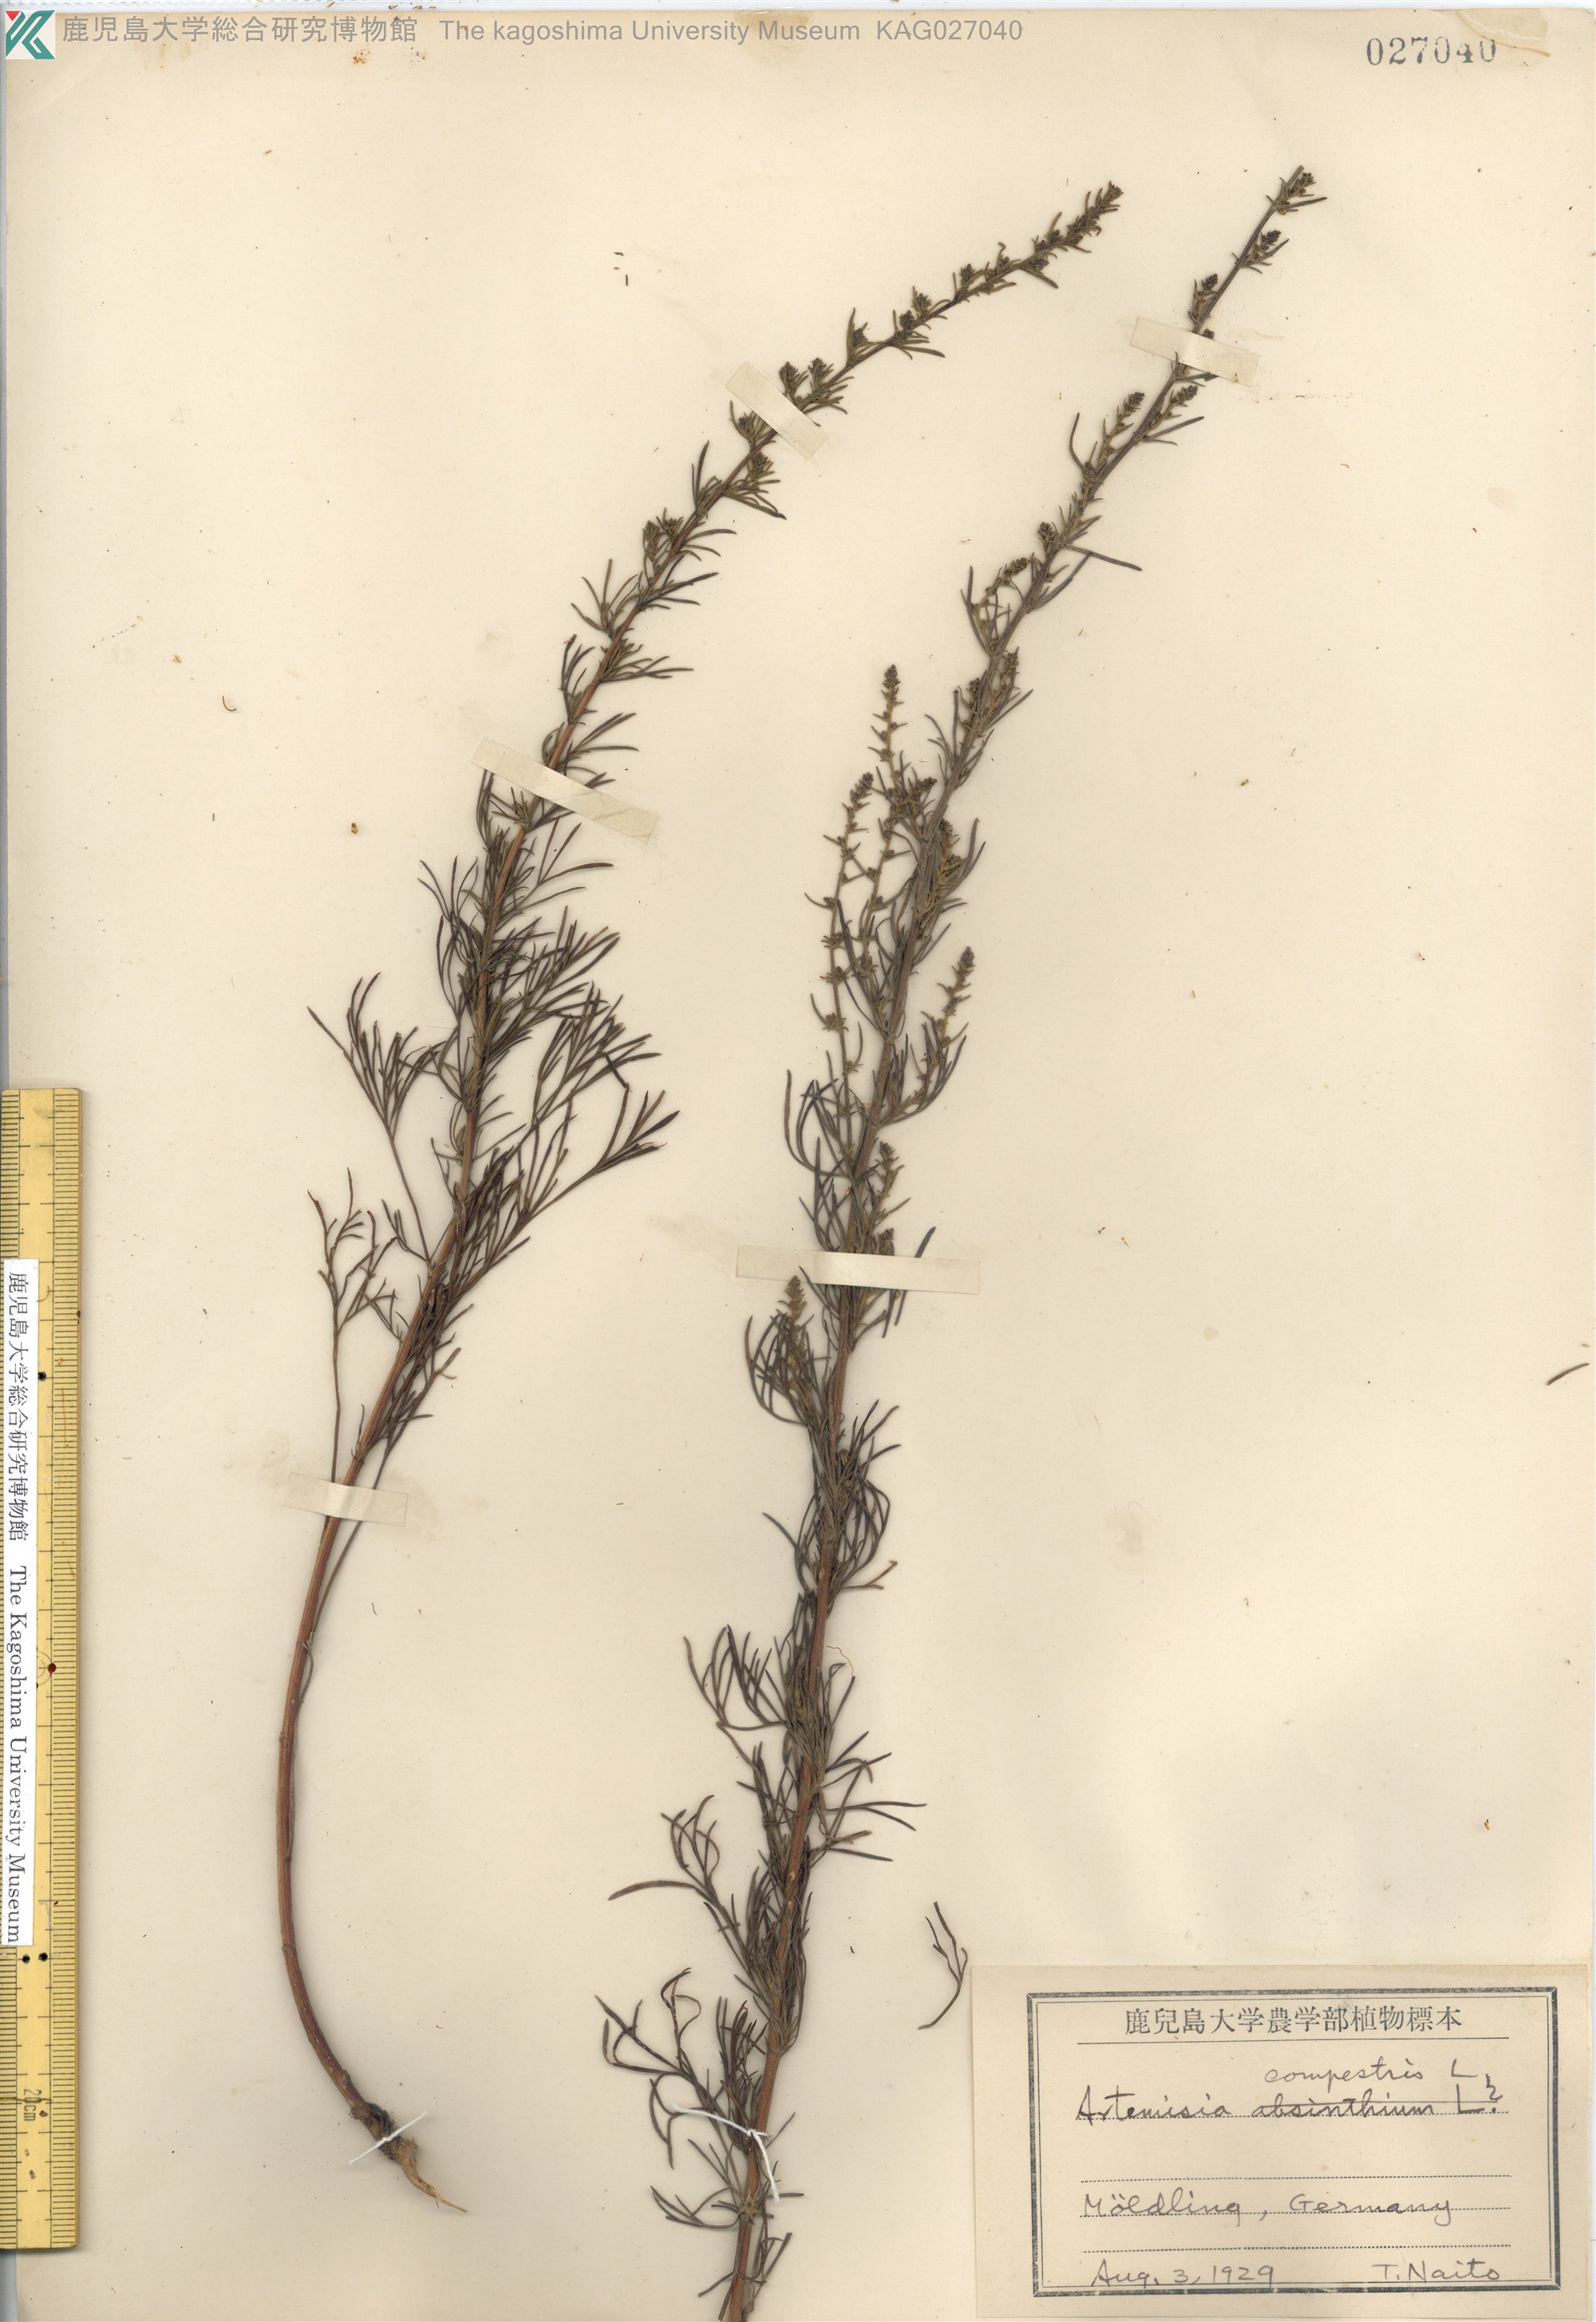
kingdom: Plantae
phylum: Tracheophyta
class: Magnoliopsida
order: Asterales
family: Asteraceae
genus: Artemisia
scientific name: Artemisia morrisonensis
